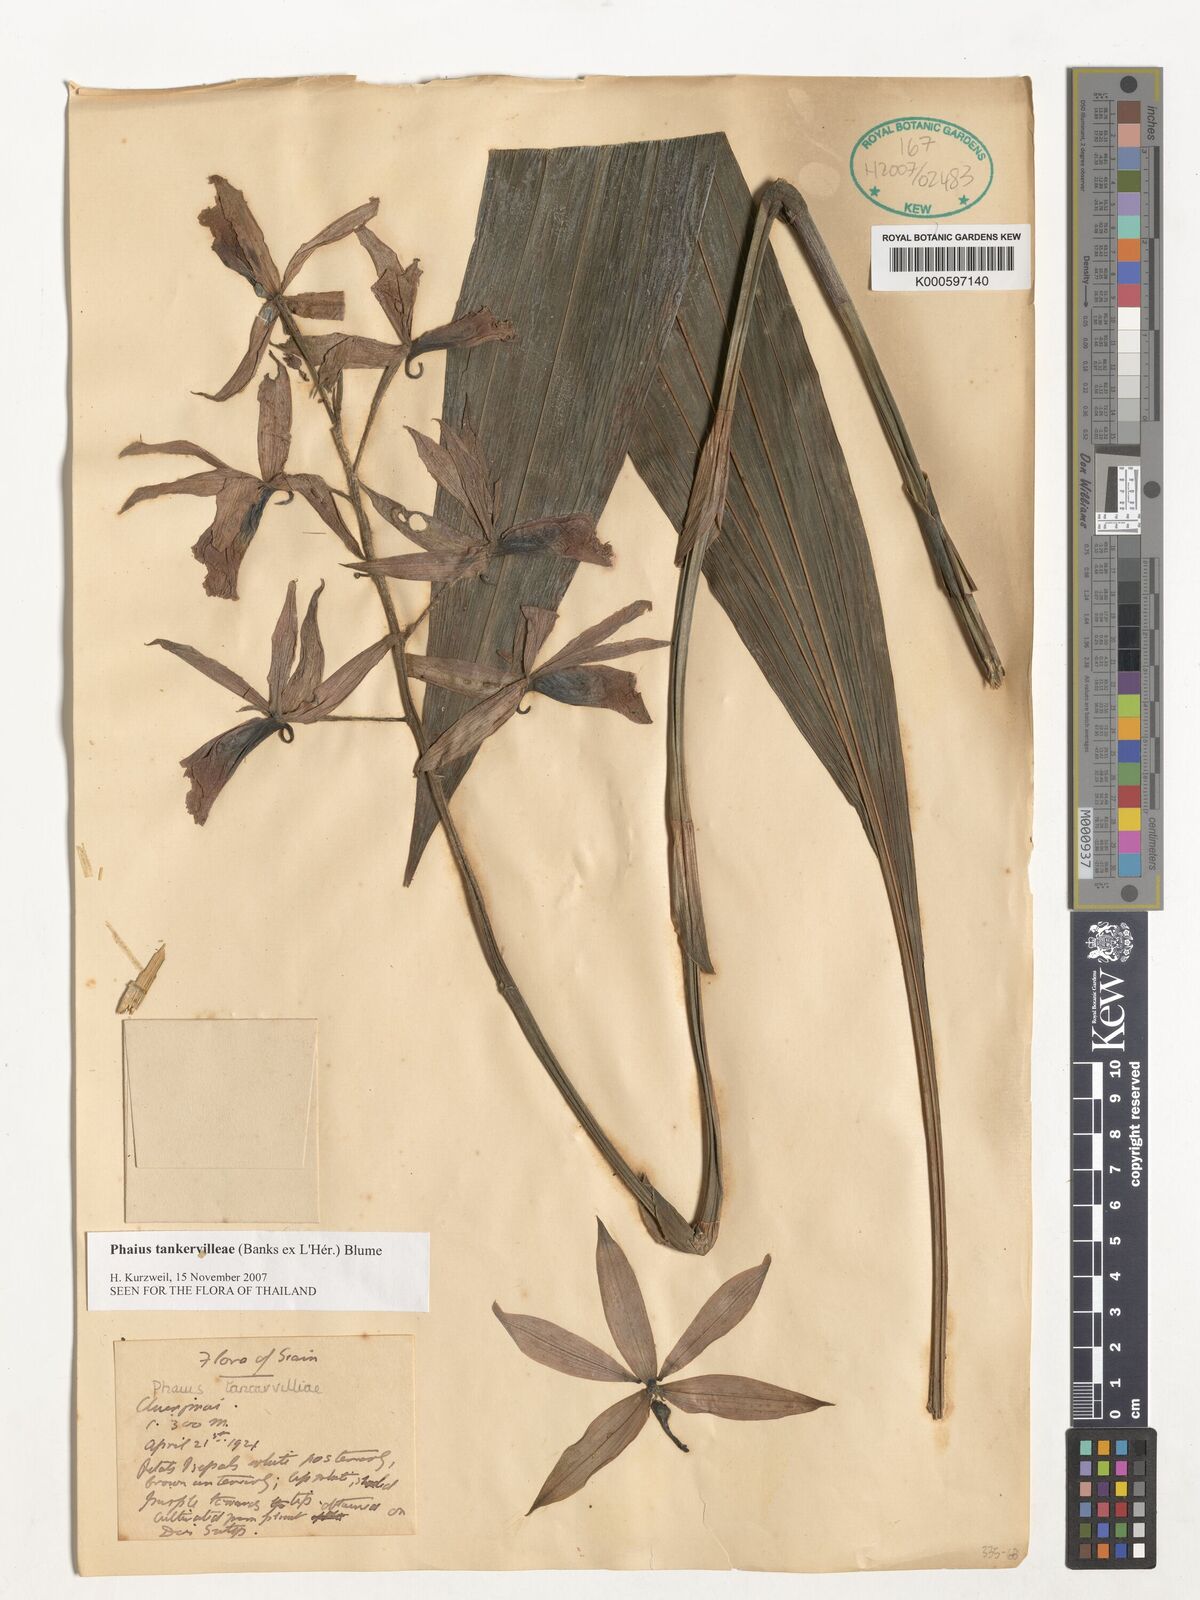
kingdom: Plantae
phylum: Tracheophyta
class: Liliopsida
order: Asparagales
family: Orchidaceae
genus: Calanthe
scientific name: Calanthe
